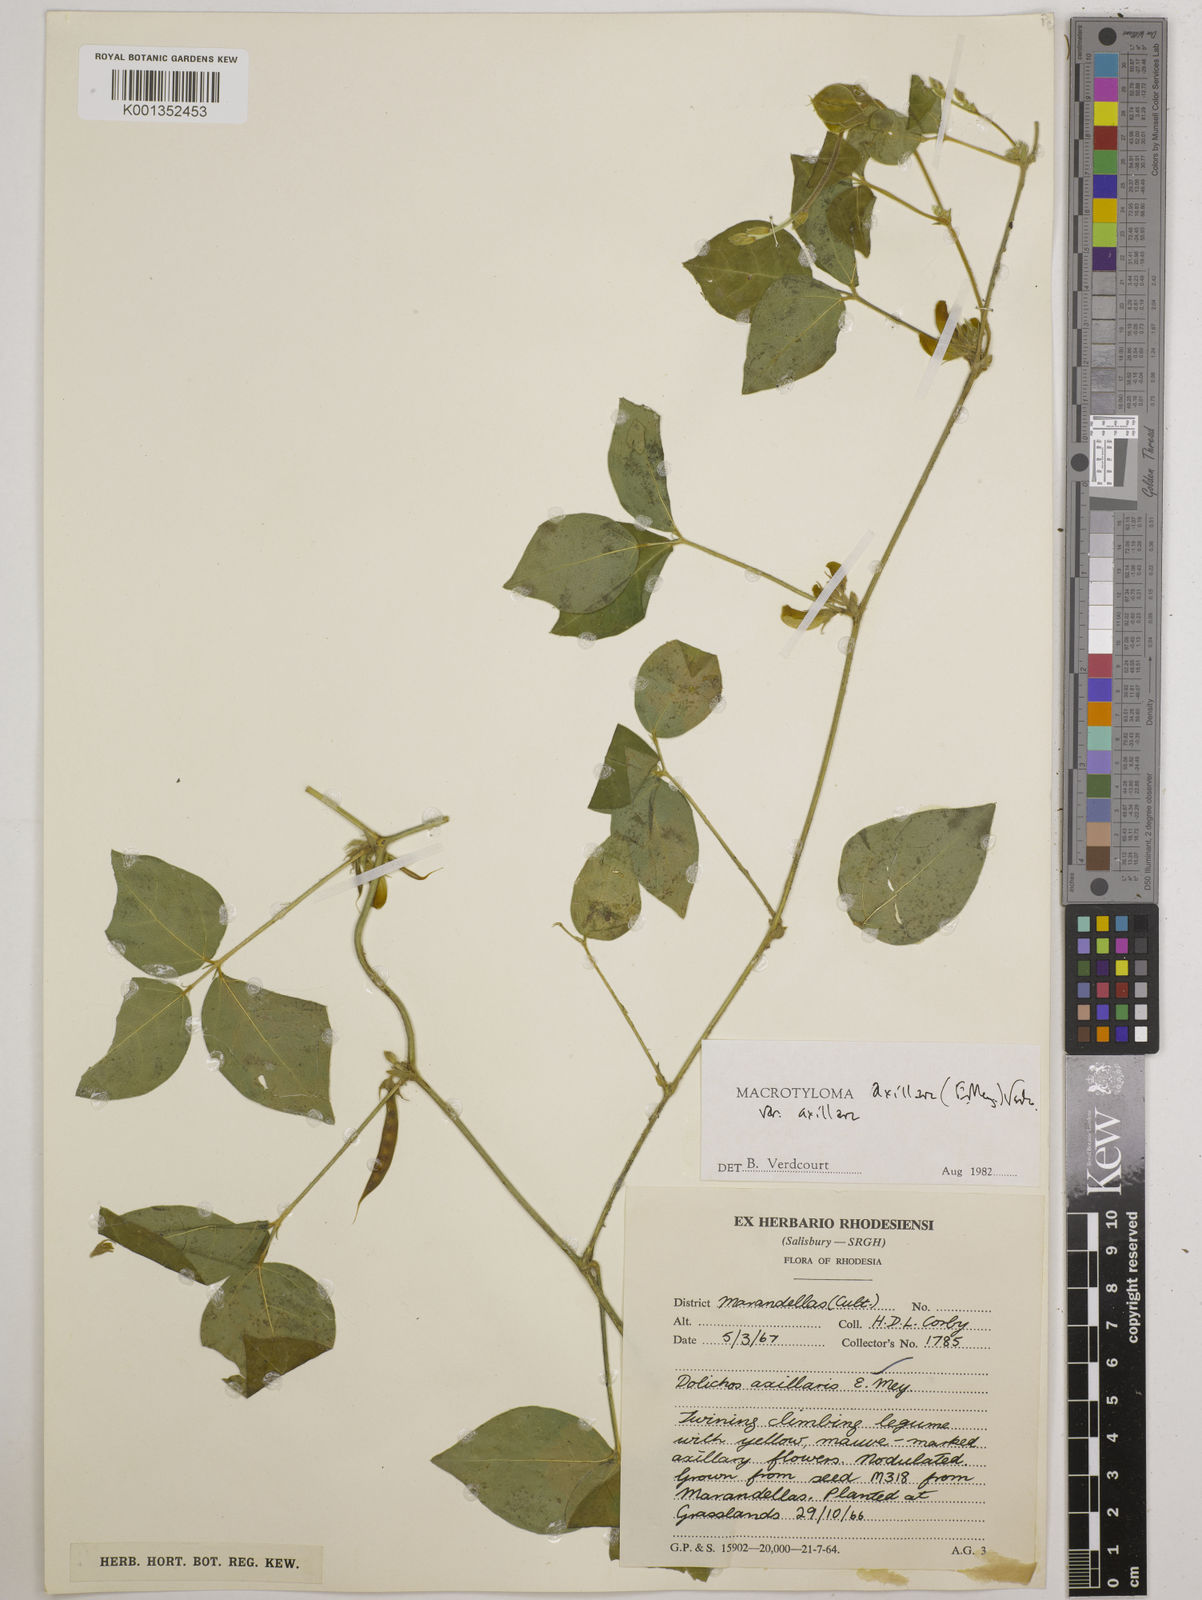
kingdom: Plantae
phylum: Tracheophyta
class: Magnoliopsida
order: Fabales
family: Fabaceae
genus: Macrotyloma
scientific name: Macrotyloma axillare
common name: Perennial horsegram
